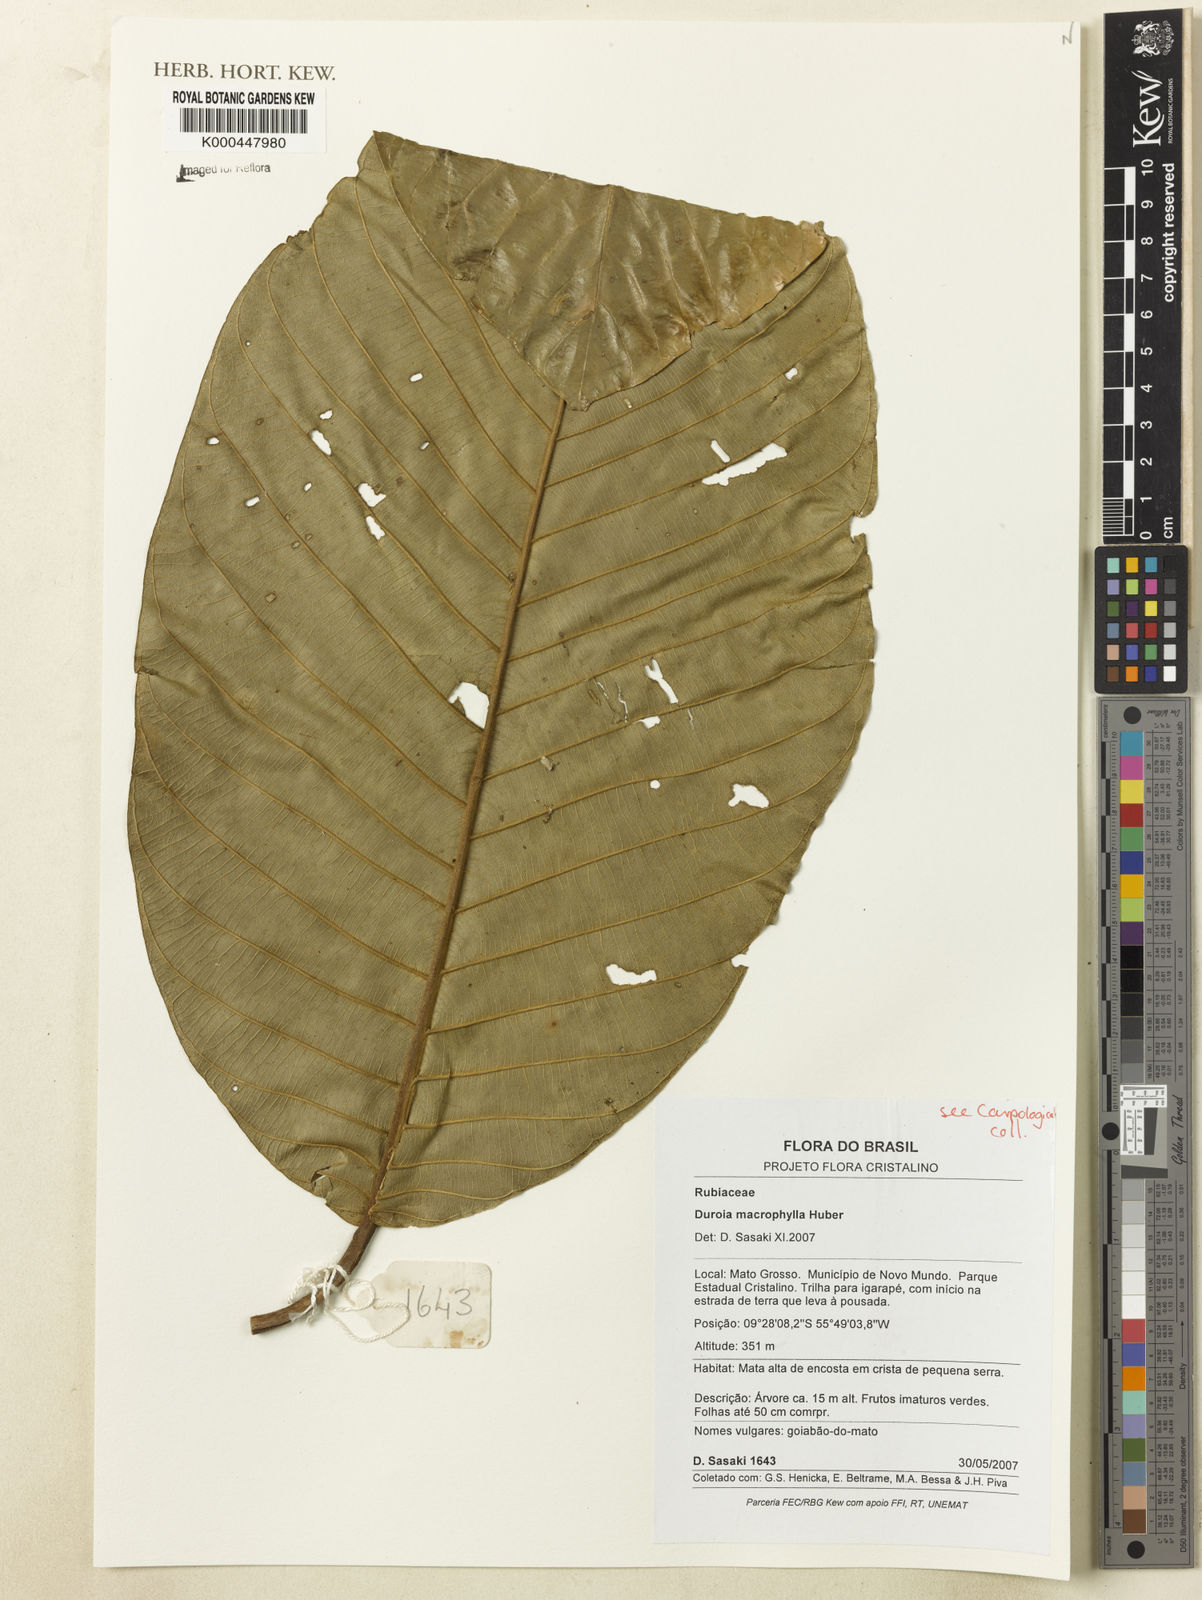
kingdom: Plantae
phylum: Tracheophyta
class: Magnoliopsida
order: Gentianales
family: Rubiaceae
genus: Duroia
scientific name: Duroia macrophylla
